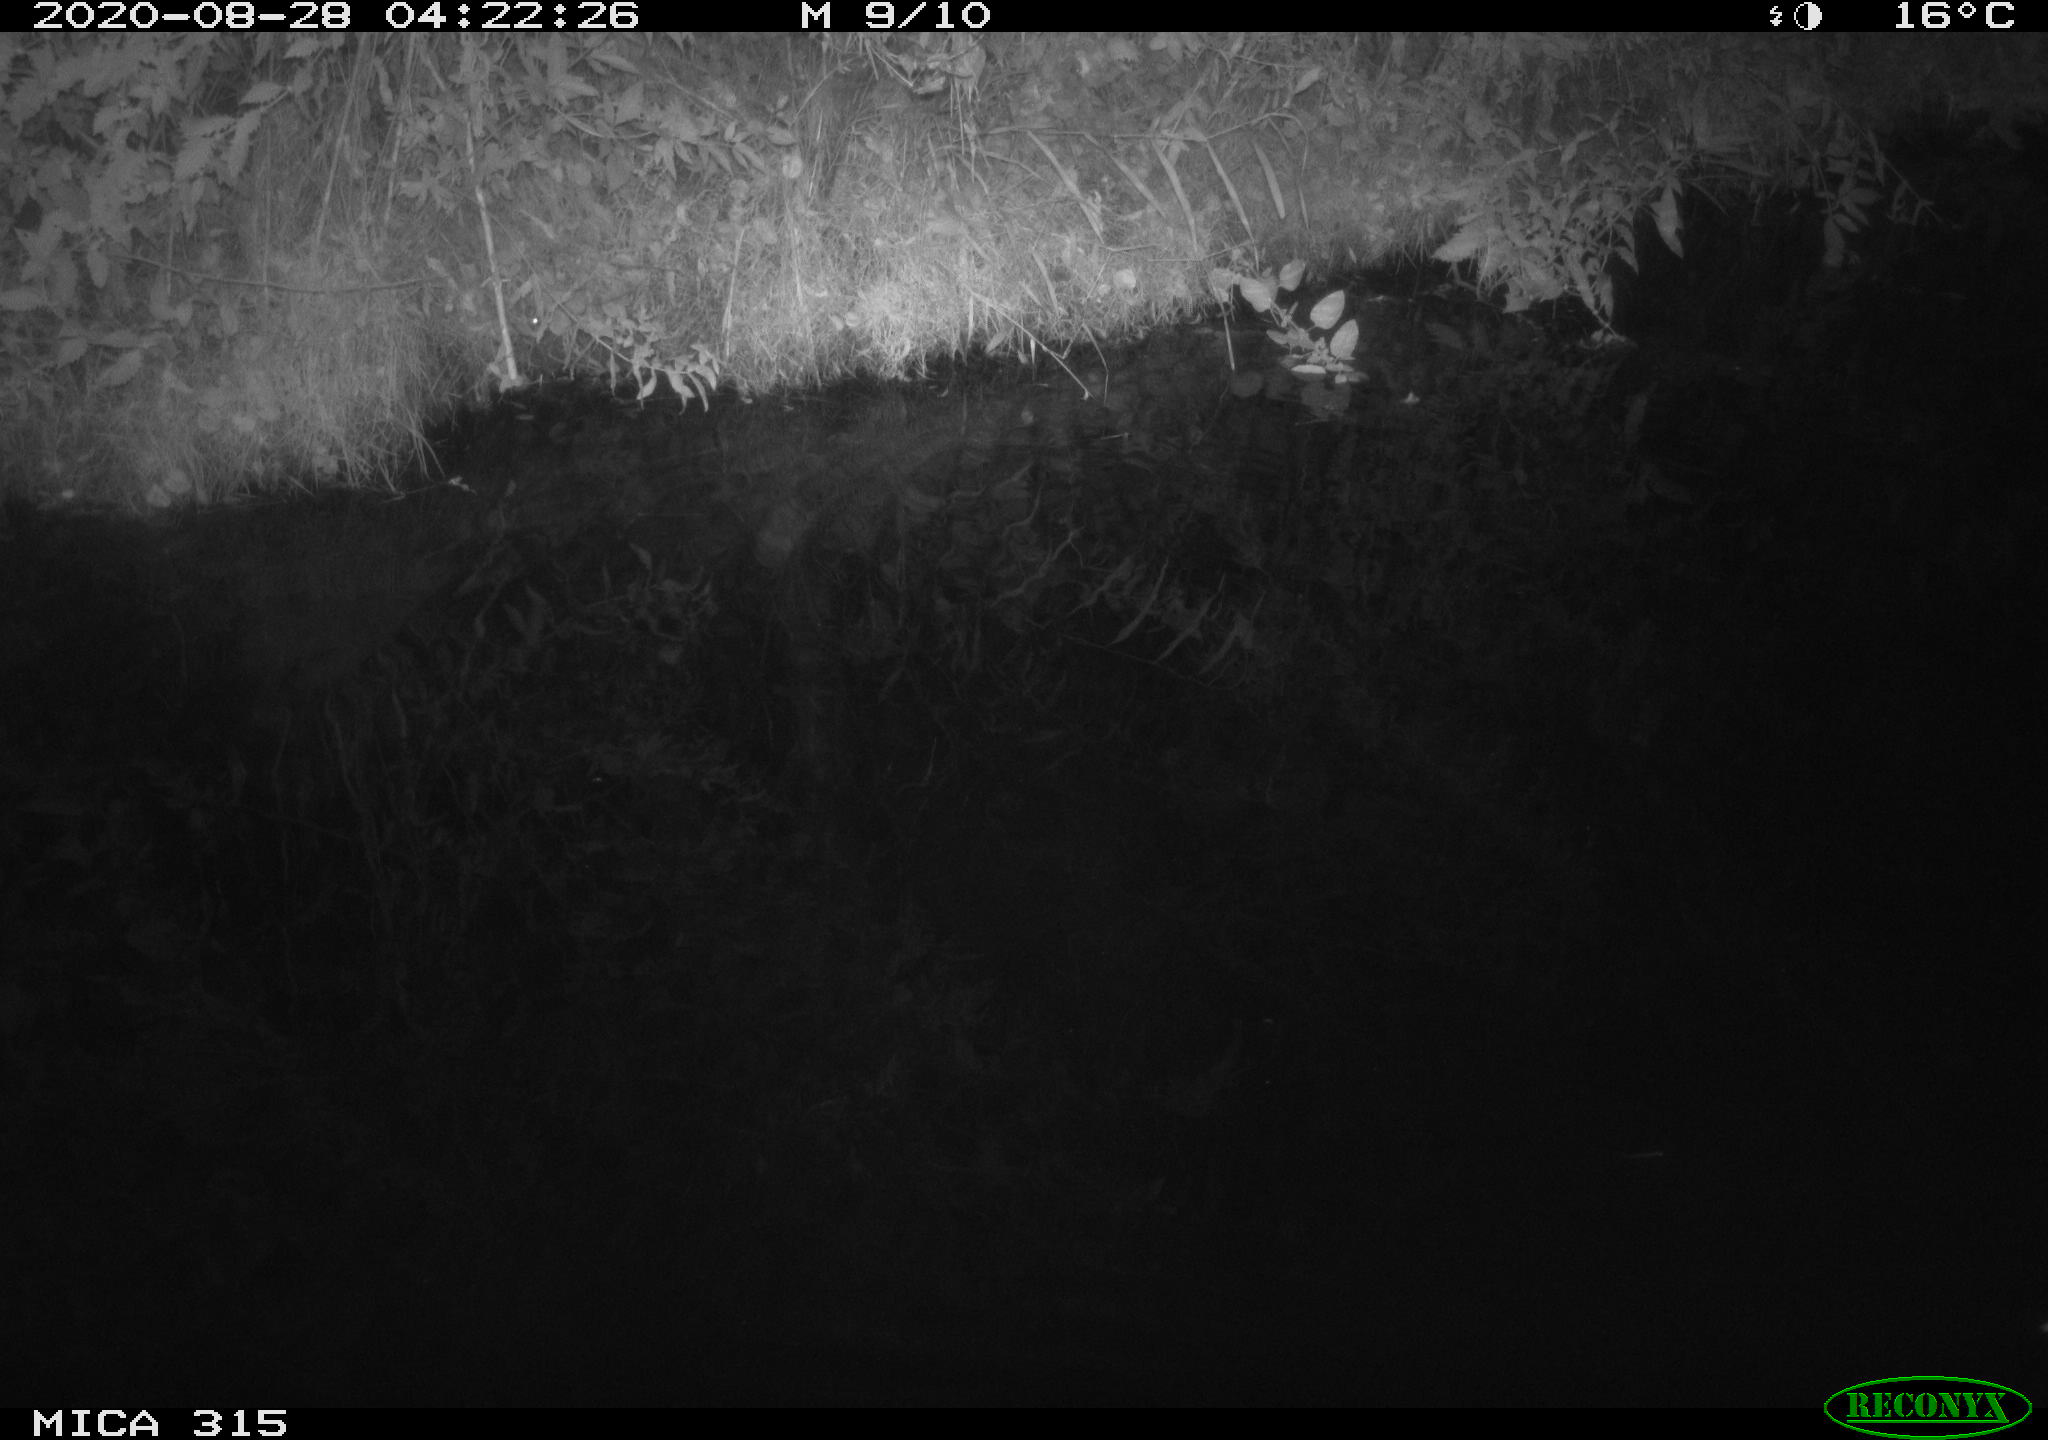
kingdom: Animalia
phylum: Chordata
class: Aves
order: Anseriformes
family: Anatidae
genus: Anas
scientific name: Anas platyrhynchos
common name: Mallard
